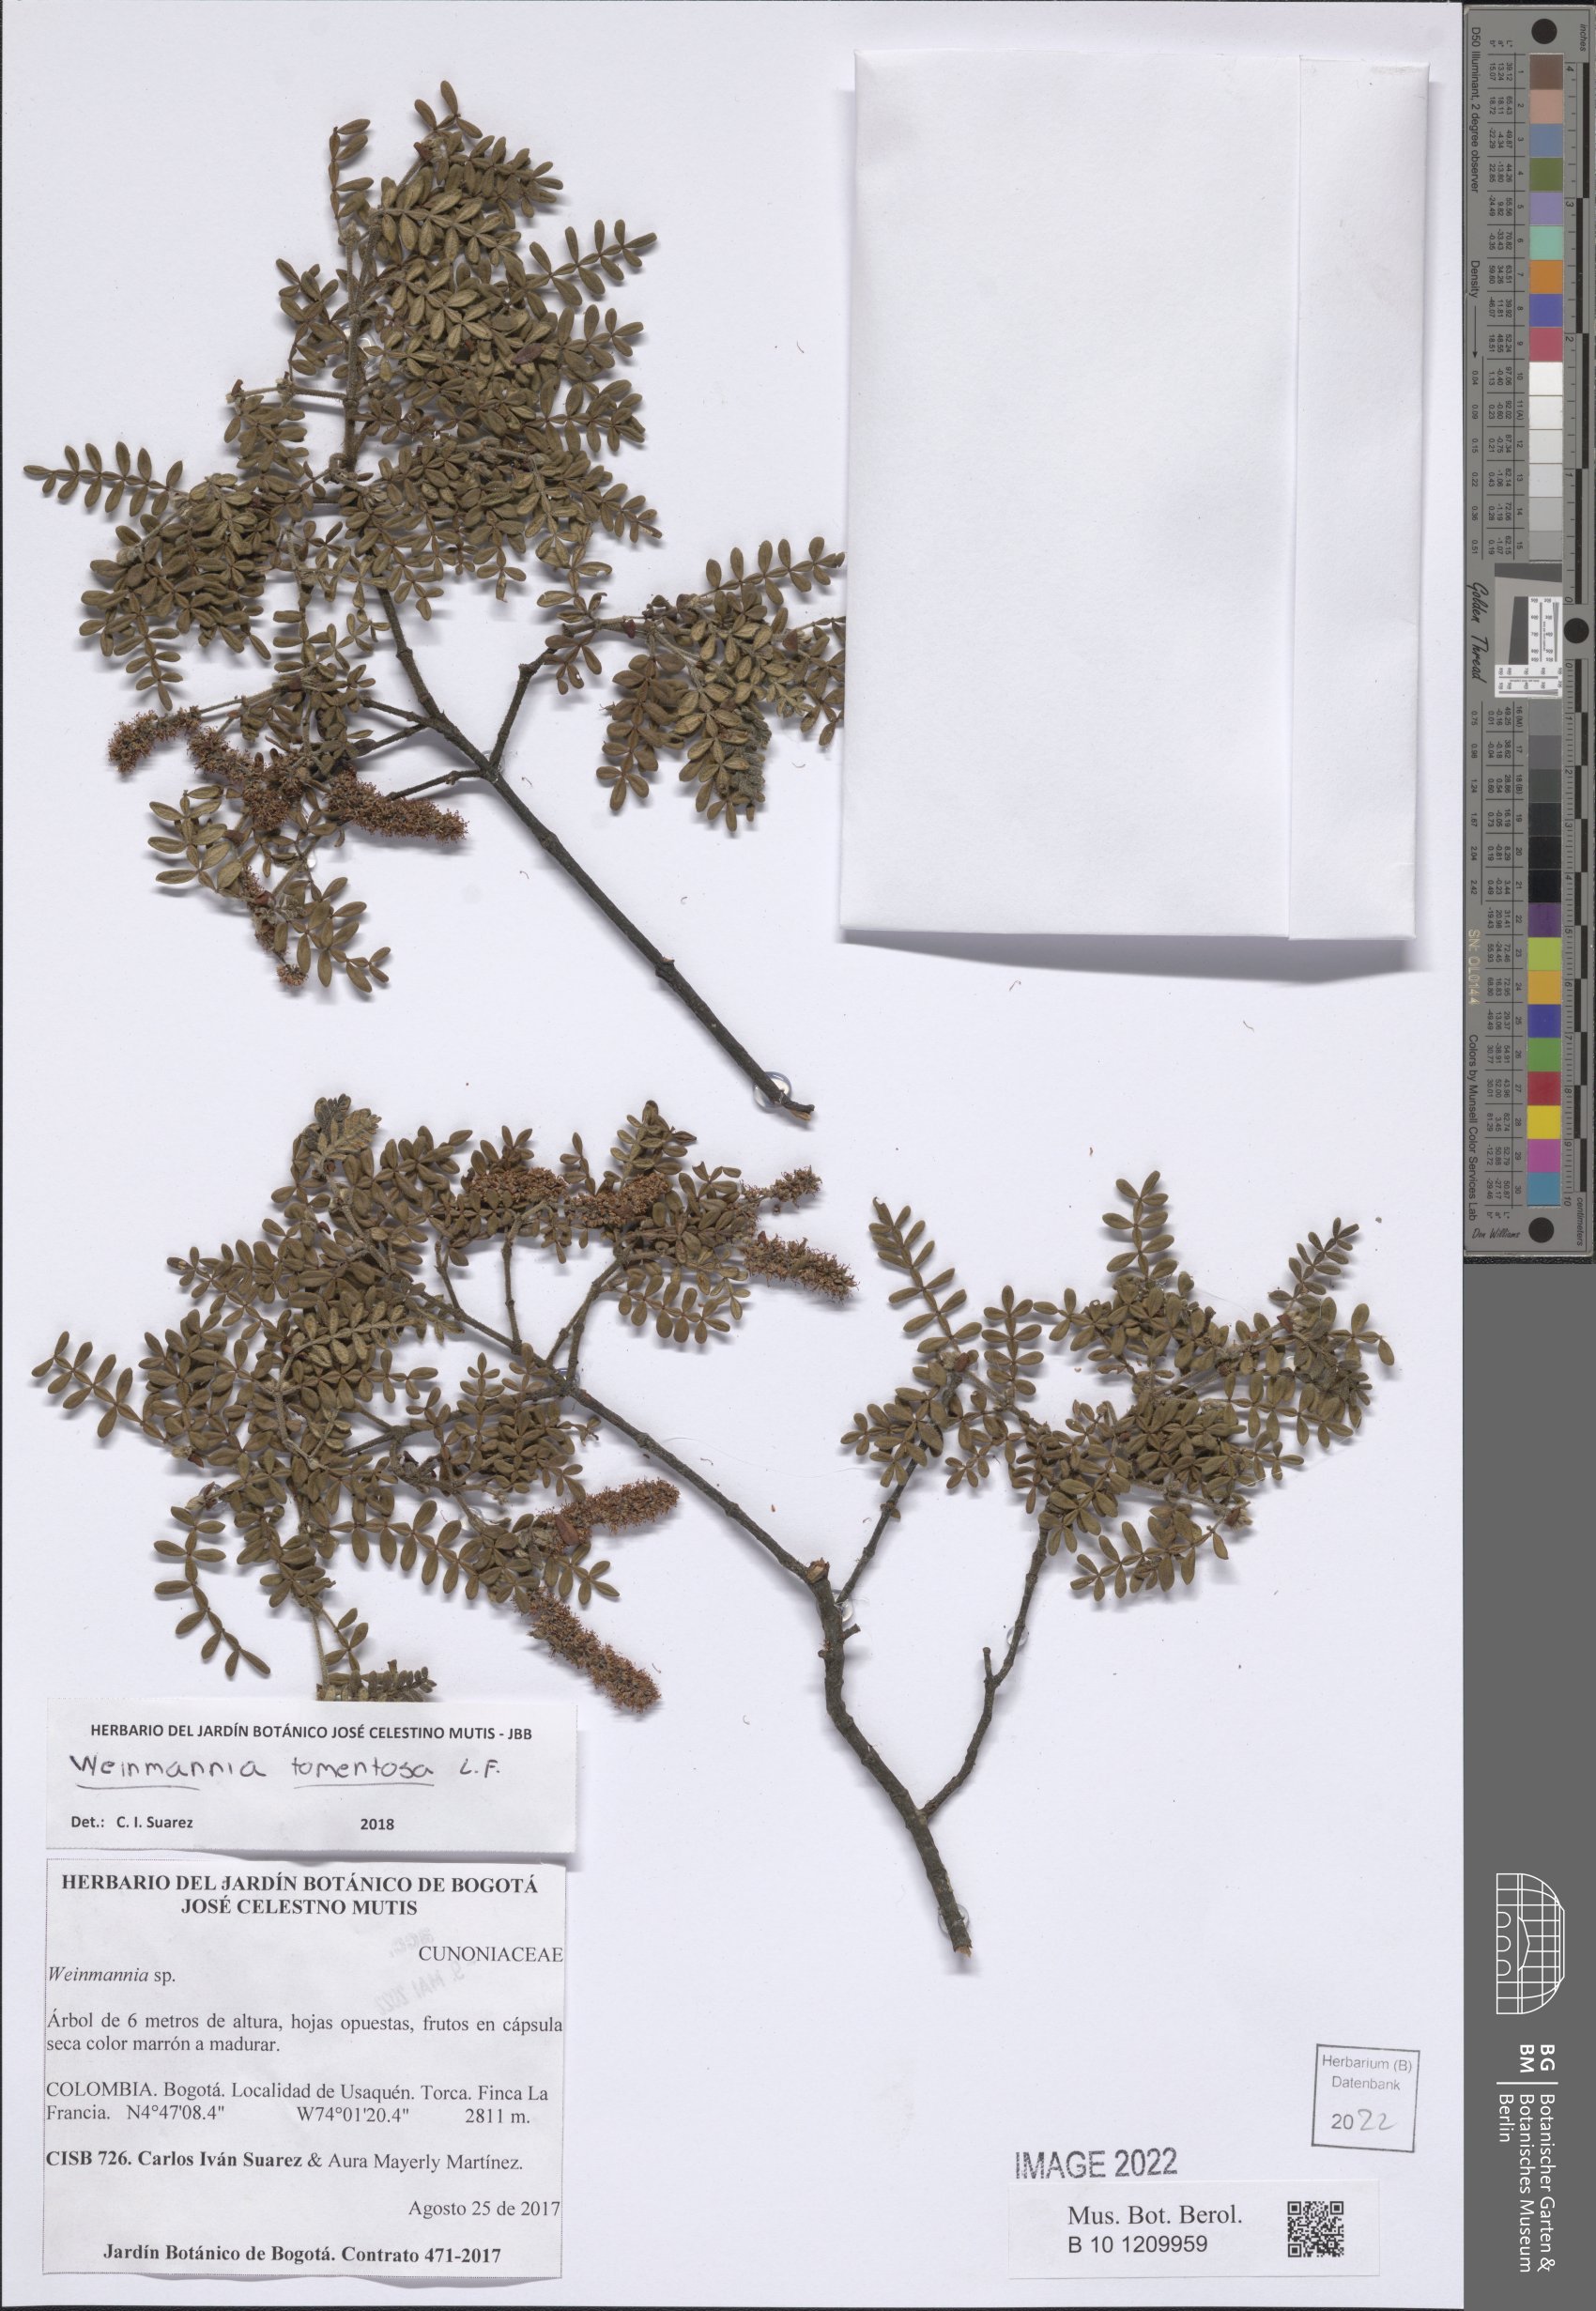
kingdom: Plantae
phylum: Tracheophyta
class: Magnoliopsida
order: Oxalidales
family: Cunoniaceae
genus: Weinmannia
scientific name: Weinmannia tomentosa
